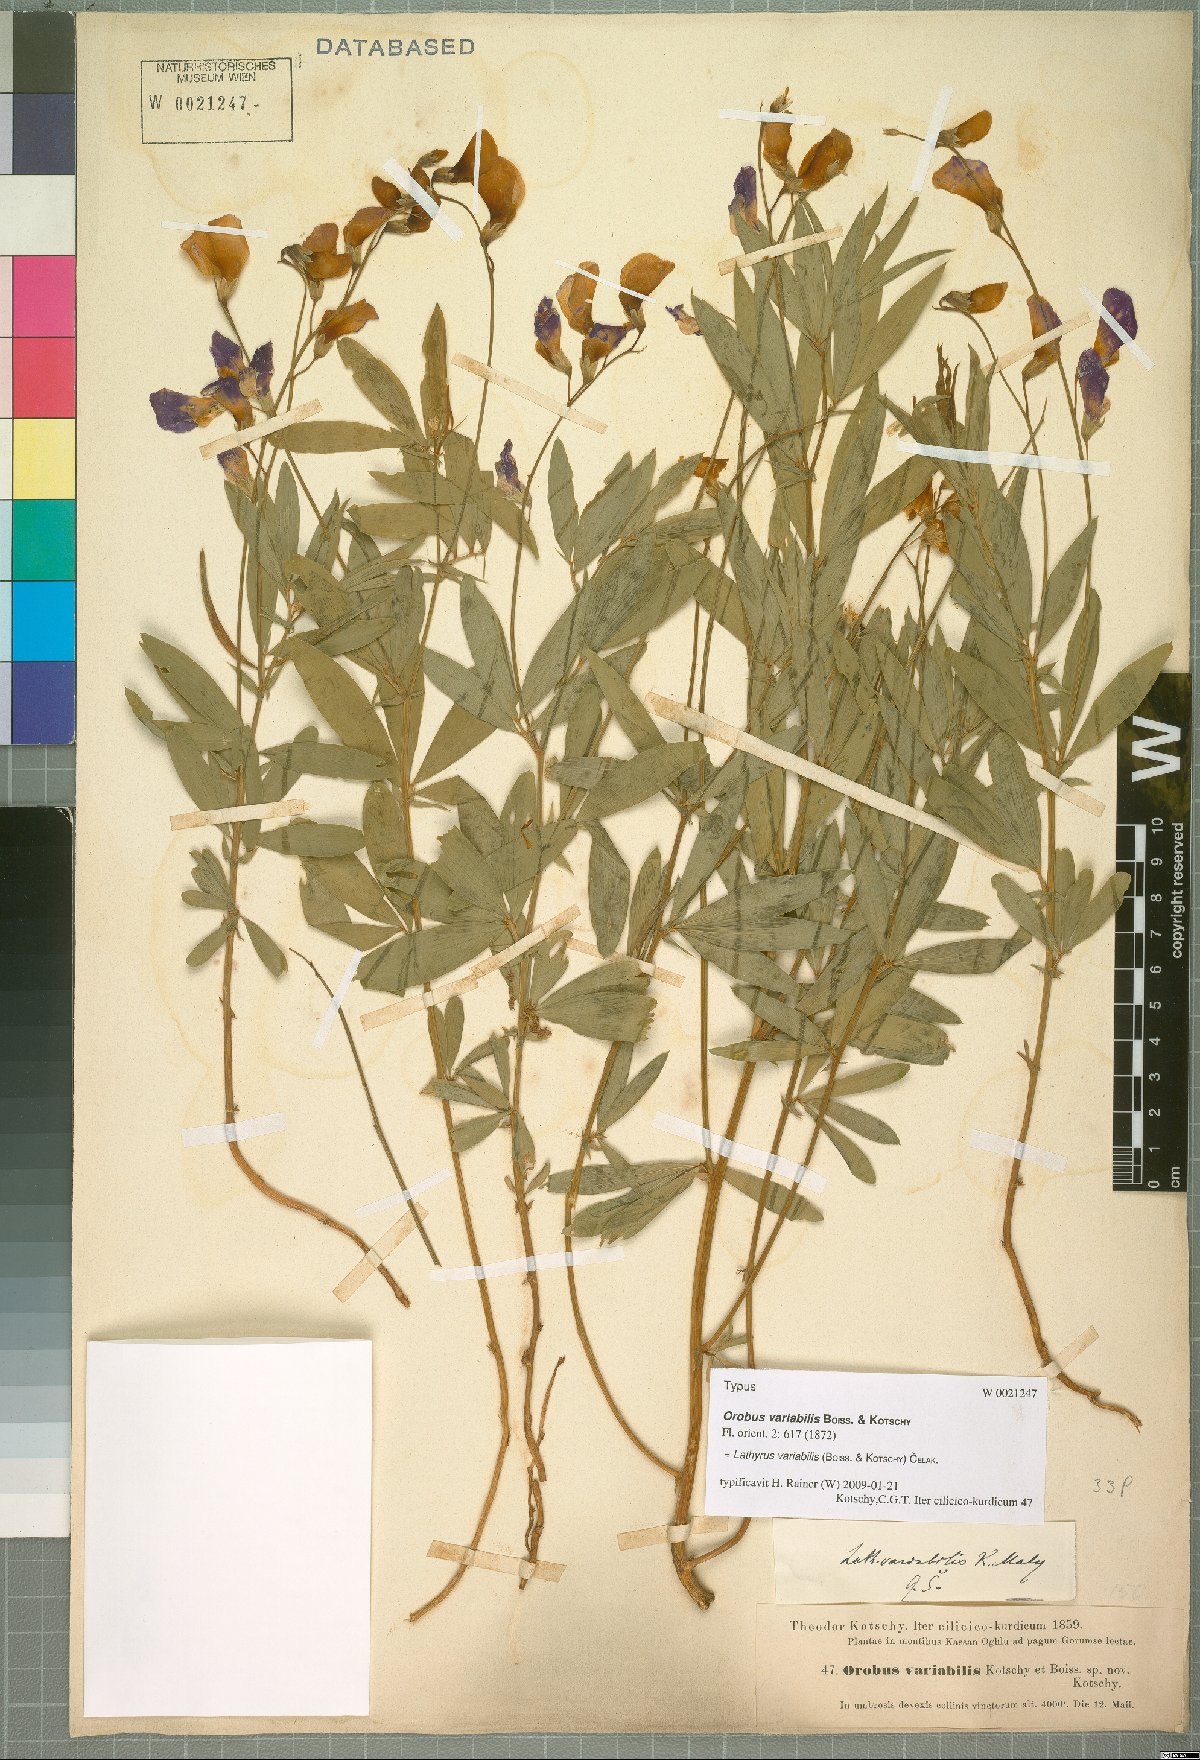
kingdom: Plantae
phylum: Tracheophyta
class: Magnoliopsida
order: Fabales
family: Fabaceae
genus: Lathyrus
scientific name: Lathyrus variabilis
